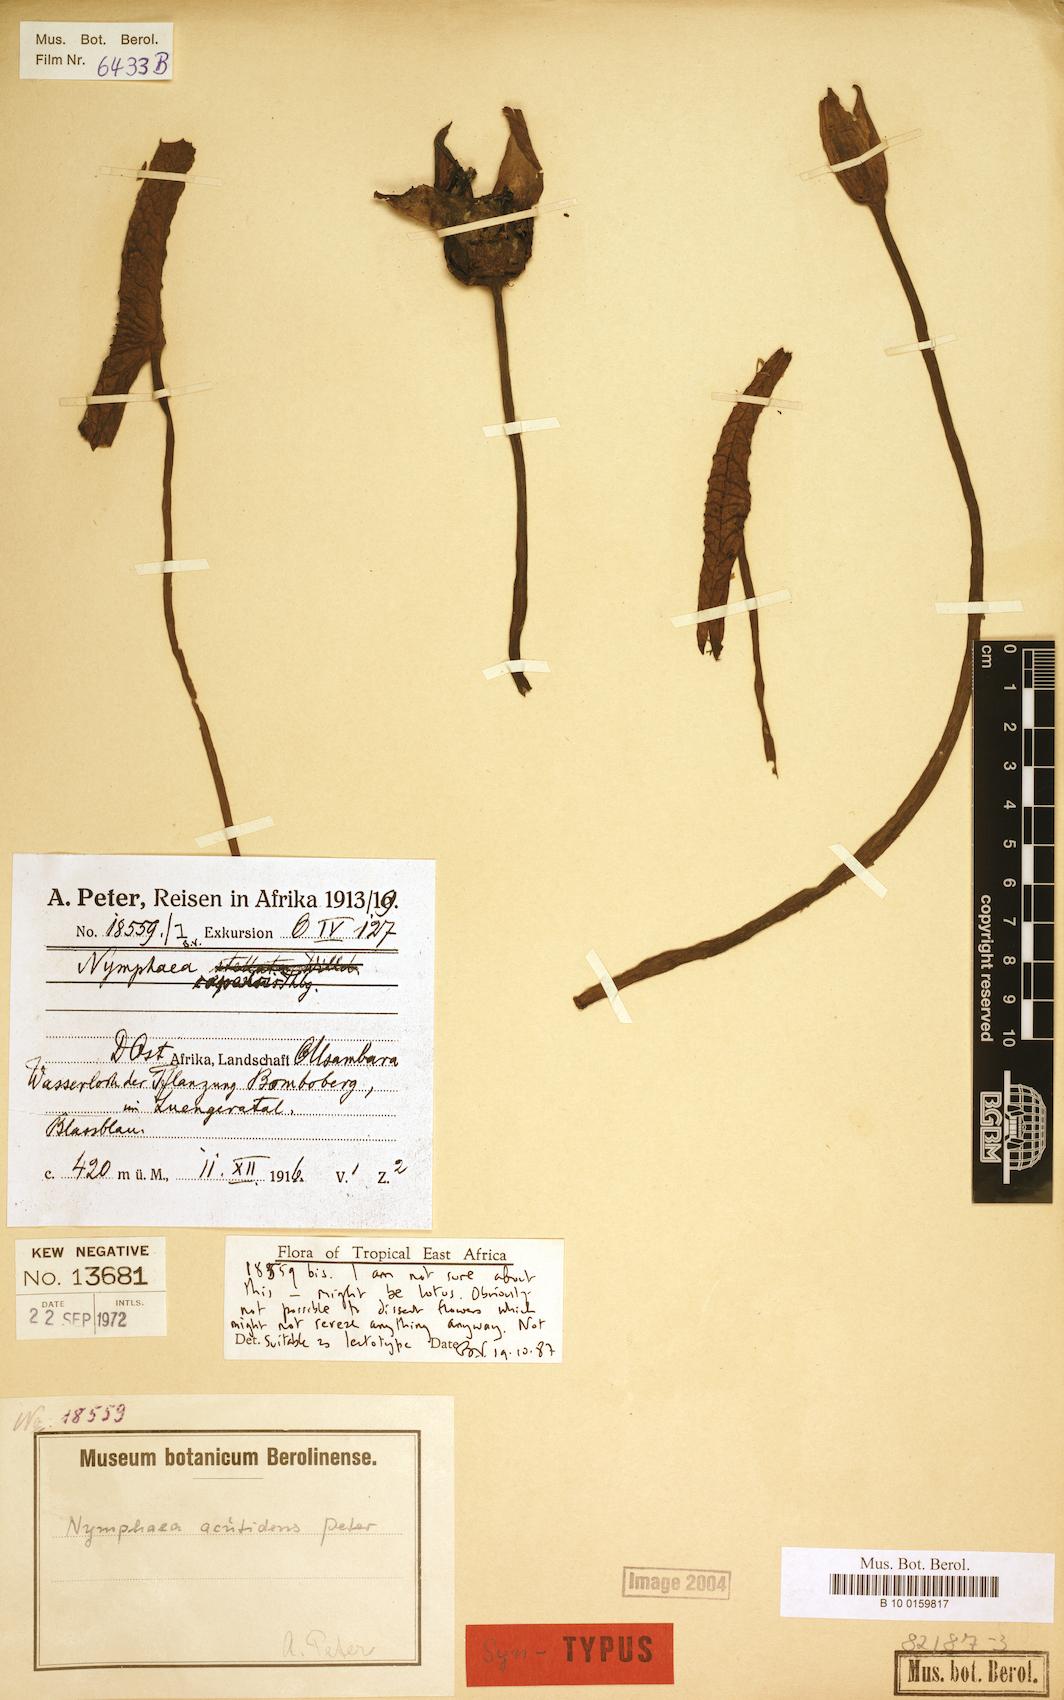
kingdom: Plantae
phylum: Tracheophyta
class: Magnoliopsida
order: Nymphaeales
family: Nymphaeaceae
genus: Nymphaea
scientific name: Nymphaea lotus
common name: White egyptian lotus
